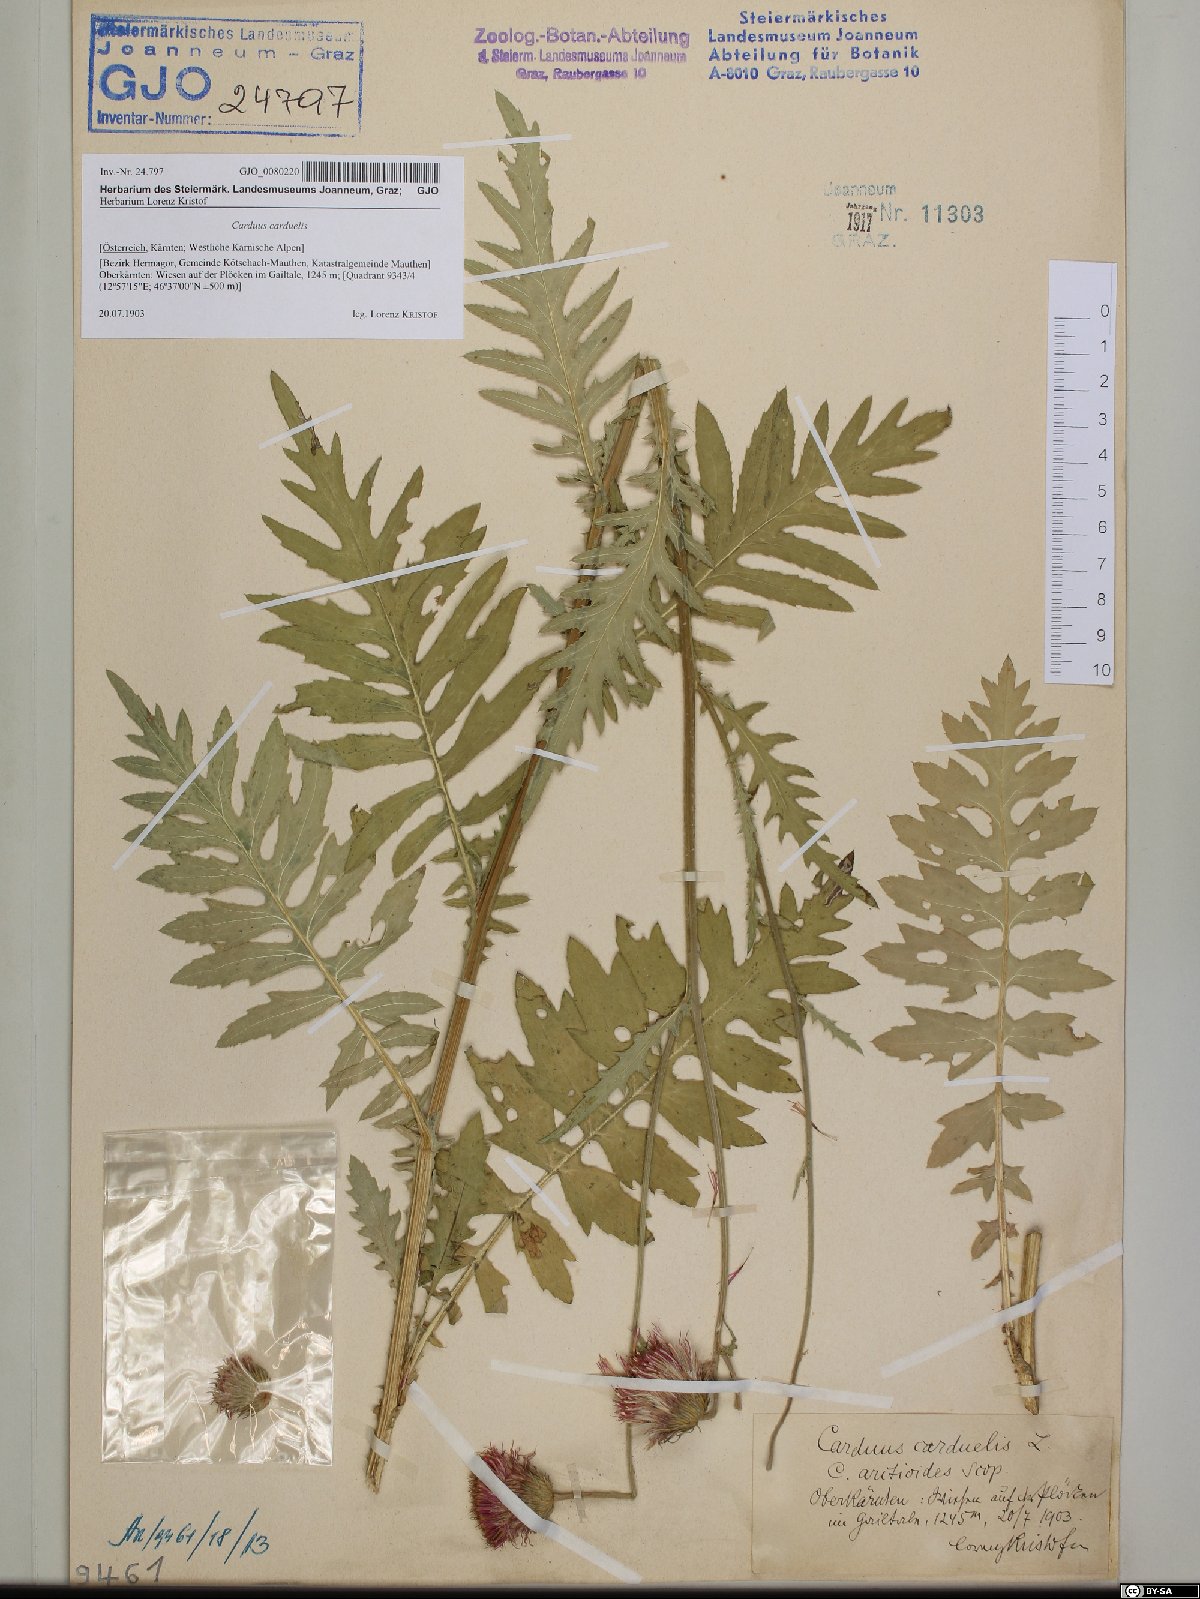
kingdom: Plantae
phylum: Tracheophyta
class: Magnoliopsida
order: Asterales
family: Asteraceae
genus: Carduus
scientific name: Carduus carduelis
